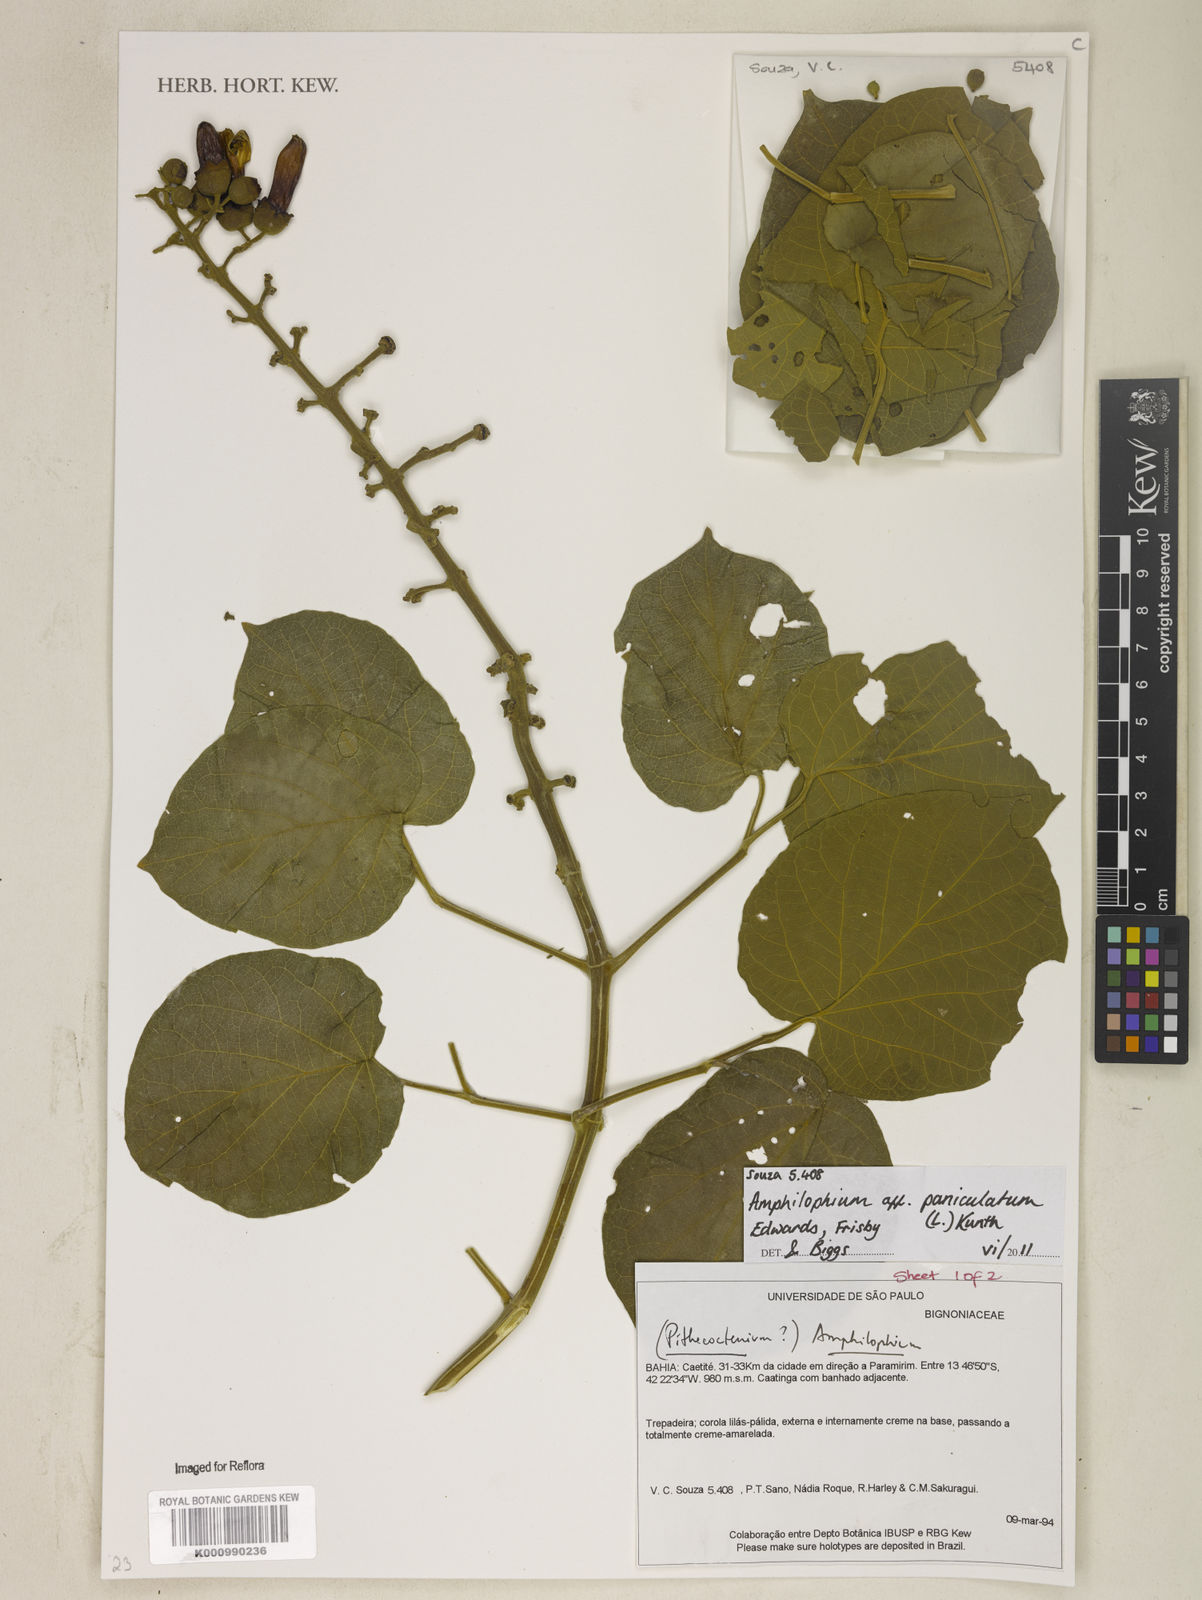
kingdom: Plantae
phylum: Tracheophyta
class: Magnoliopsida
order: Lamiales
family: Bignoniaceae
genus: Amphilophium
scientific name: Amphilophium paniculatum
